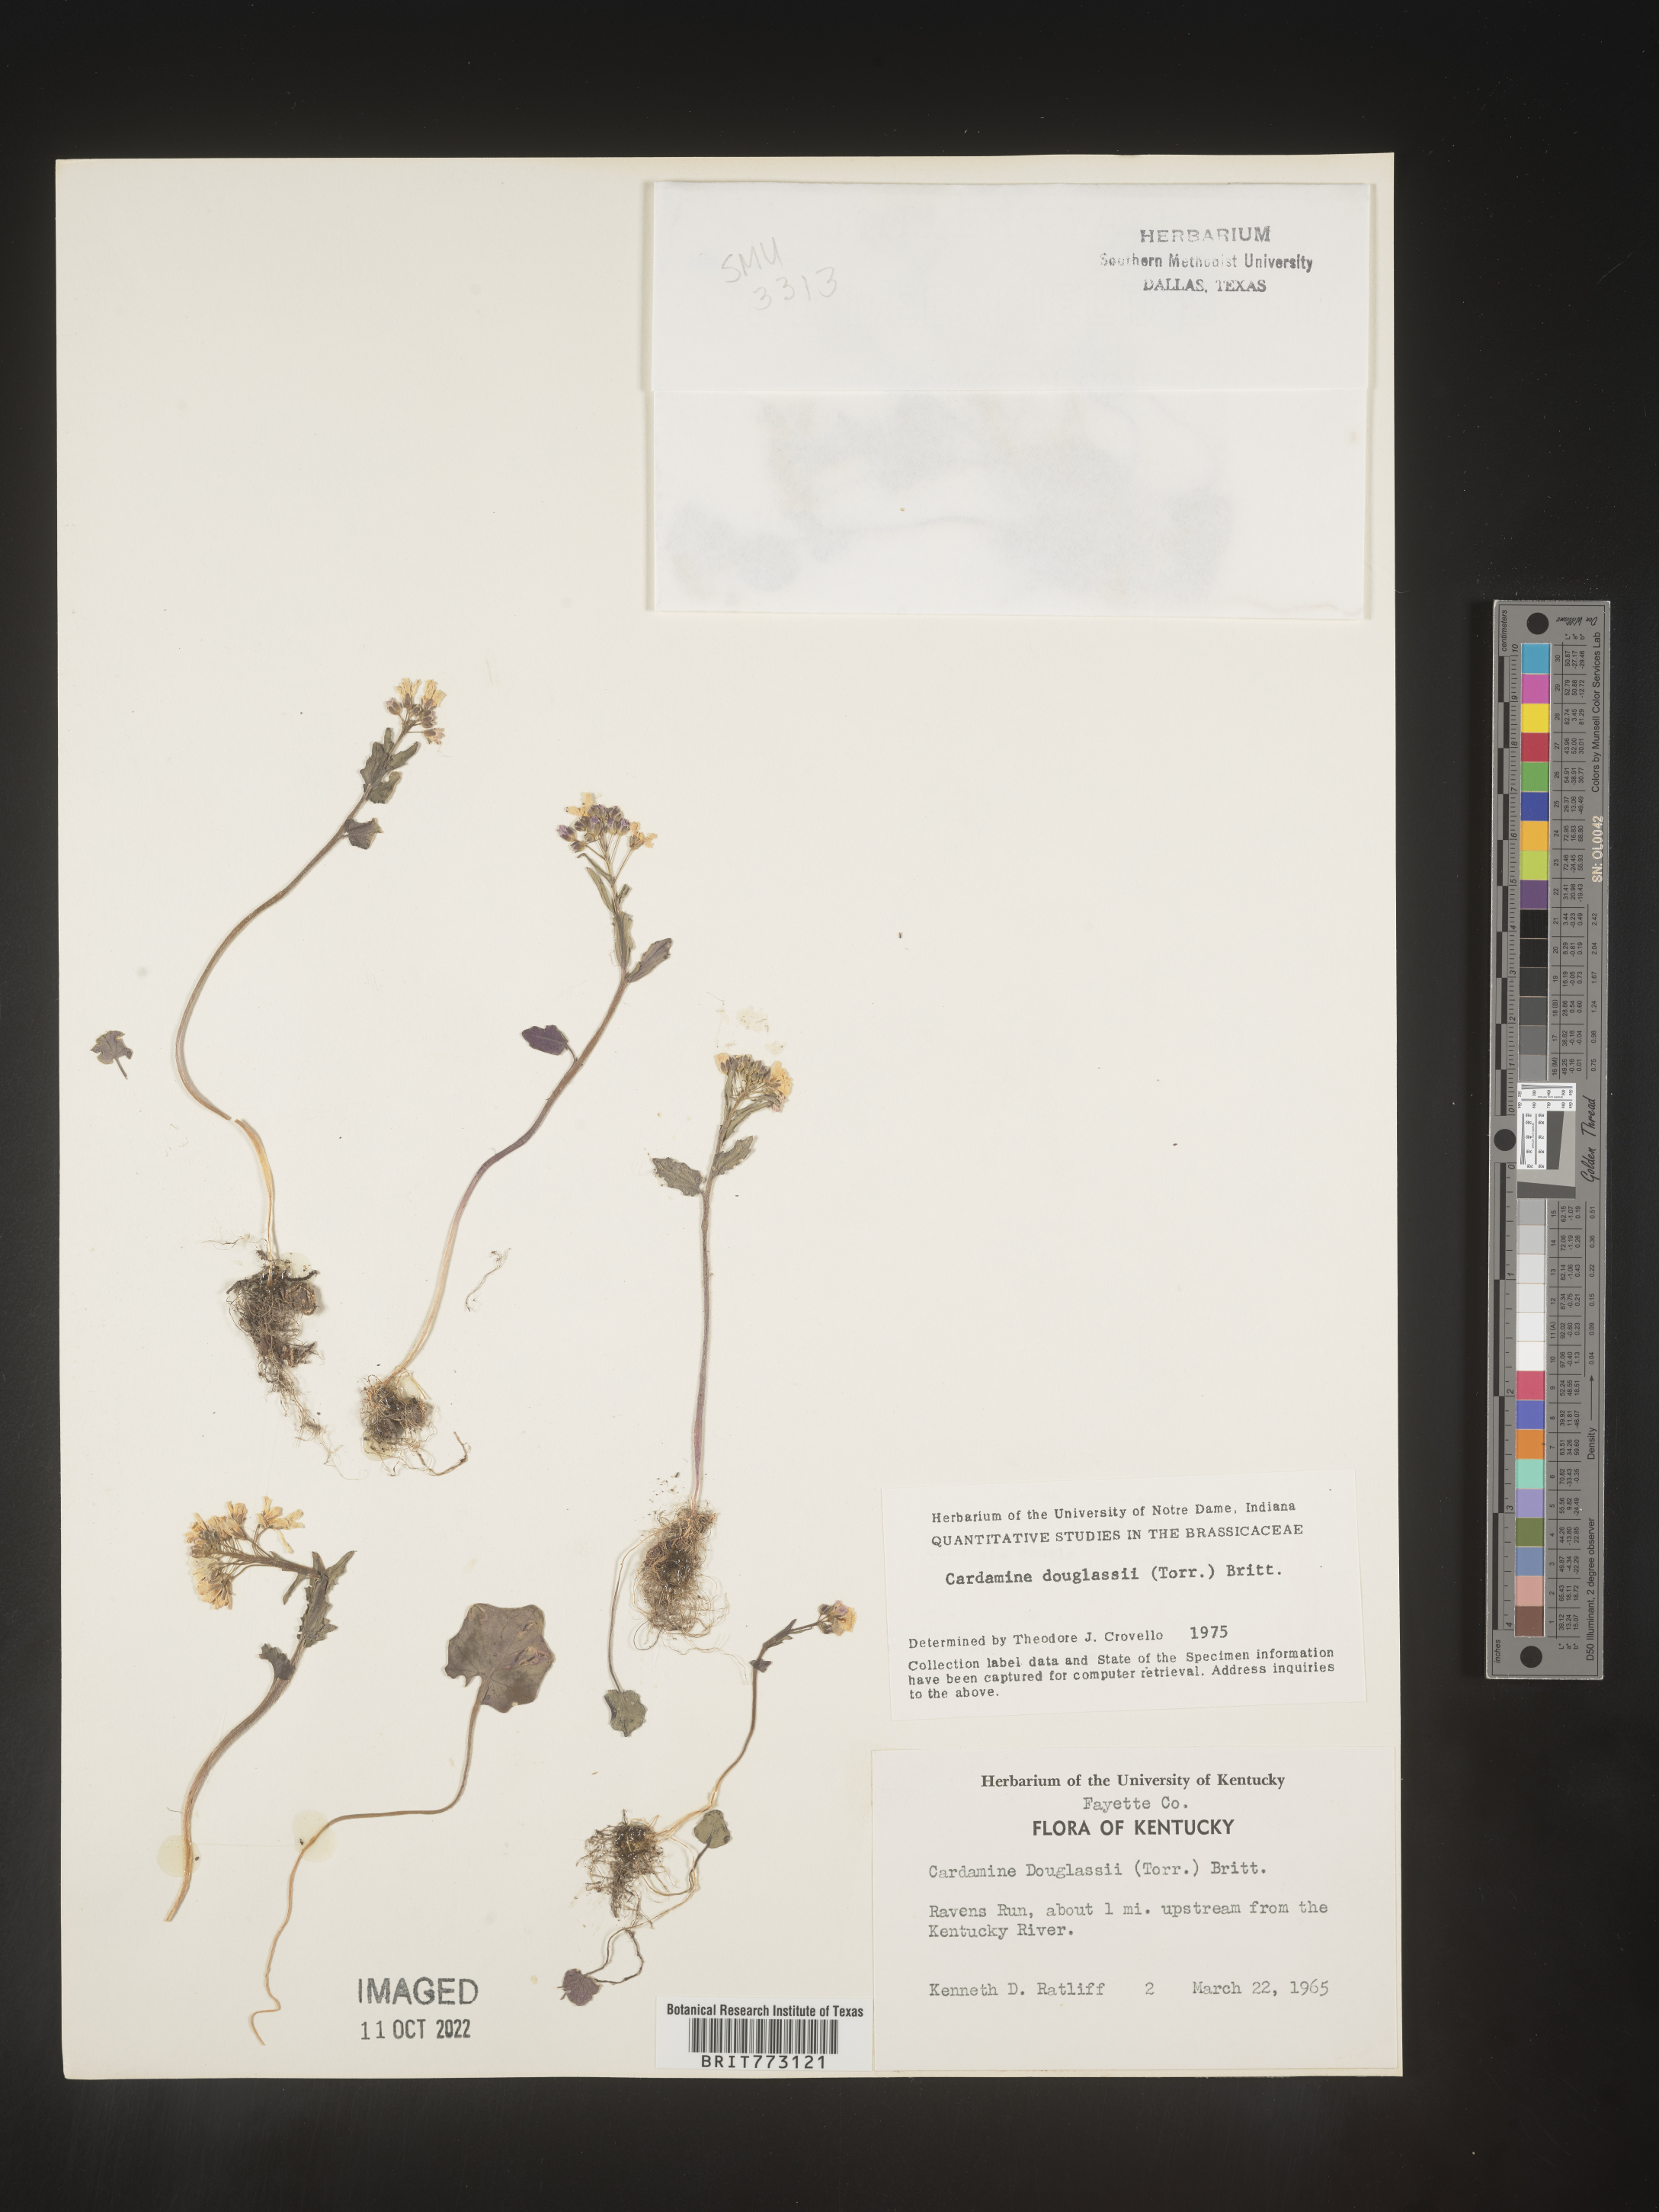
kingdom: Plantae
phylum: Tracheophyta
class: Magnoliopsida
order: Brassicales
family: Brassicaceae
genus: Cardamine
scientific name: Cardamine
